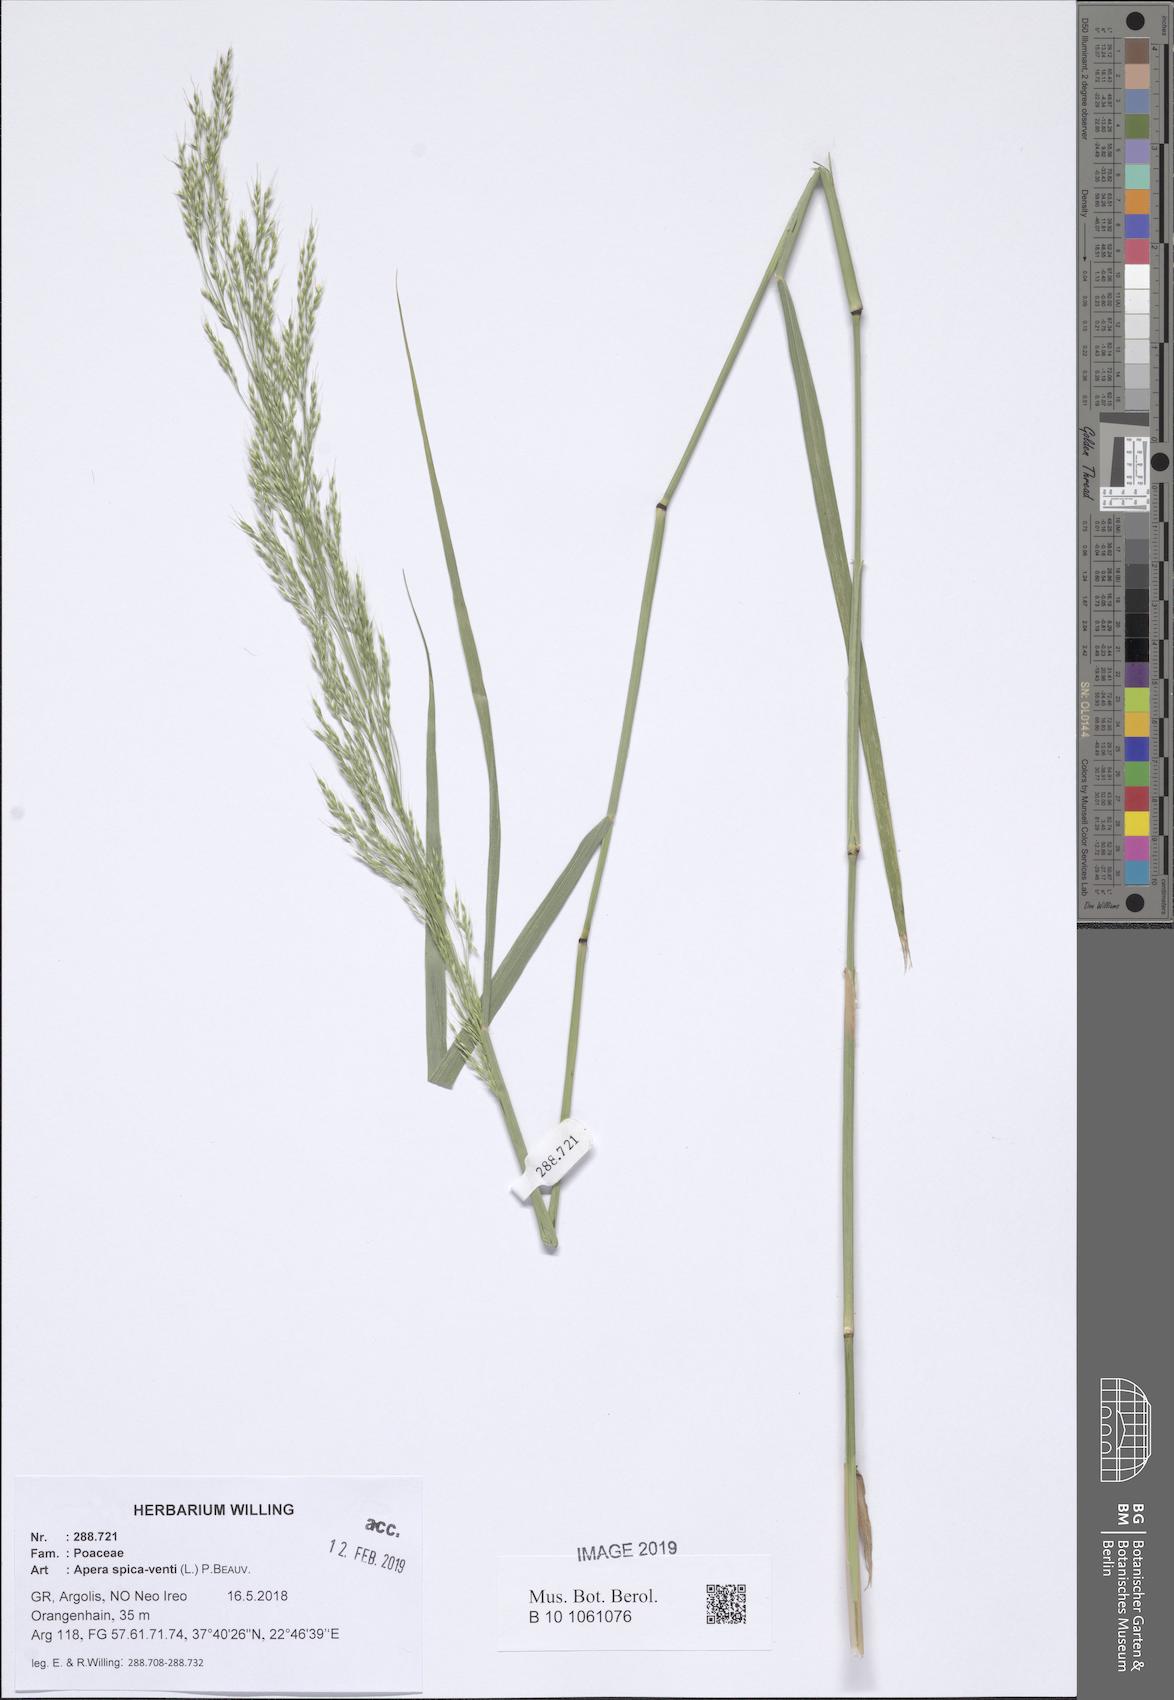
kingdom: Plantae
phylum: Tracheophyta
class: Liliopsida
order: Poales
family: Poaceae
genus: Apera
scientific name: Apera spica-venti
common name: Loose silky-bent
